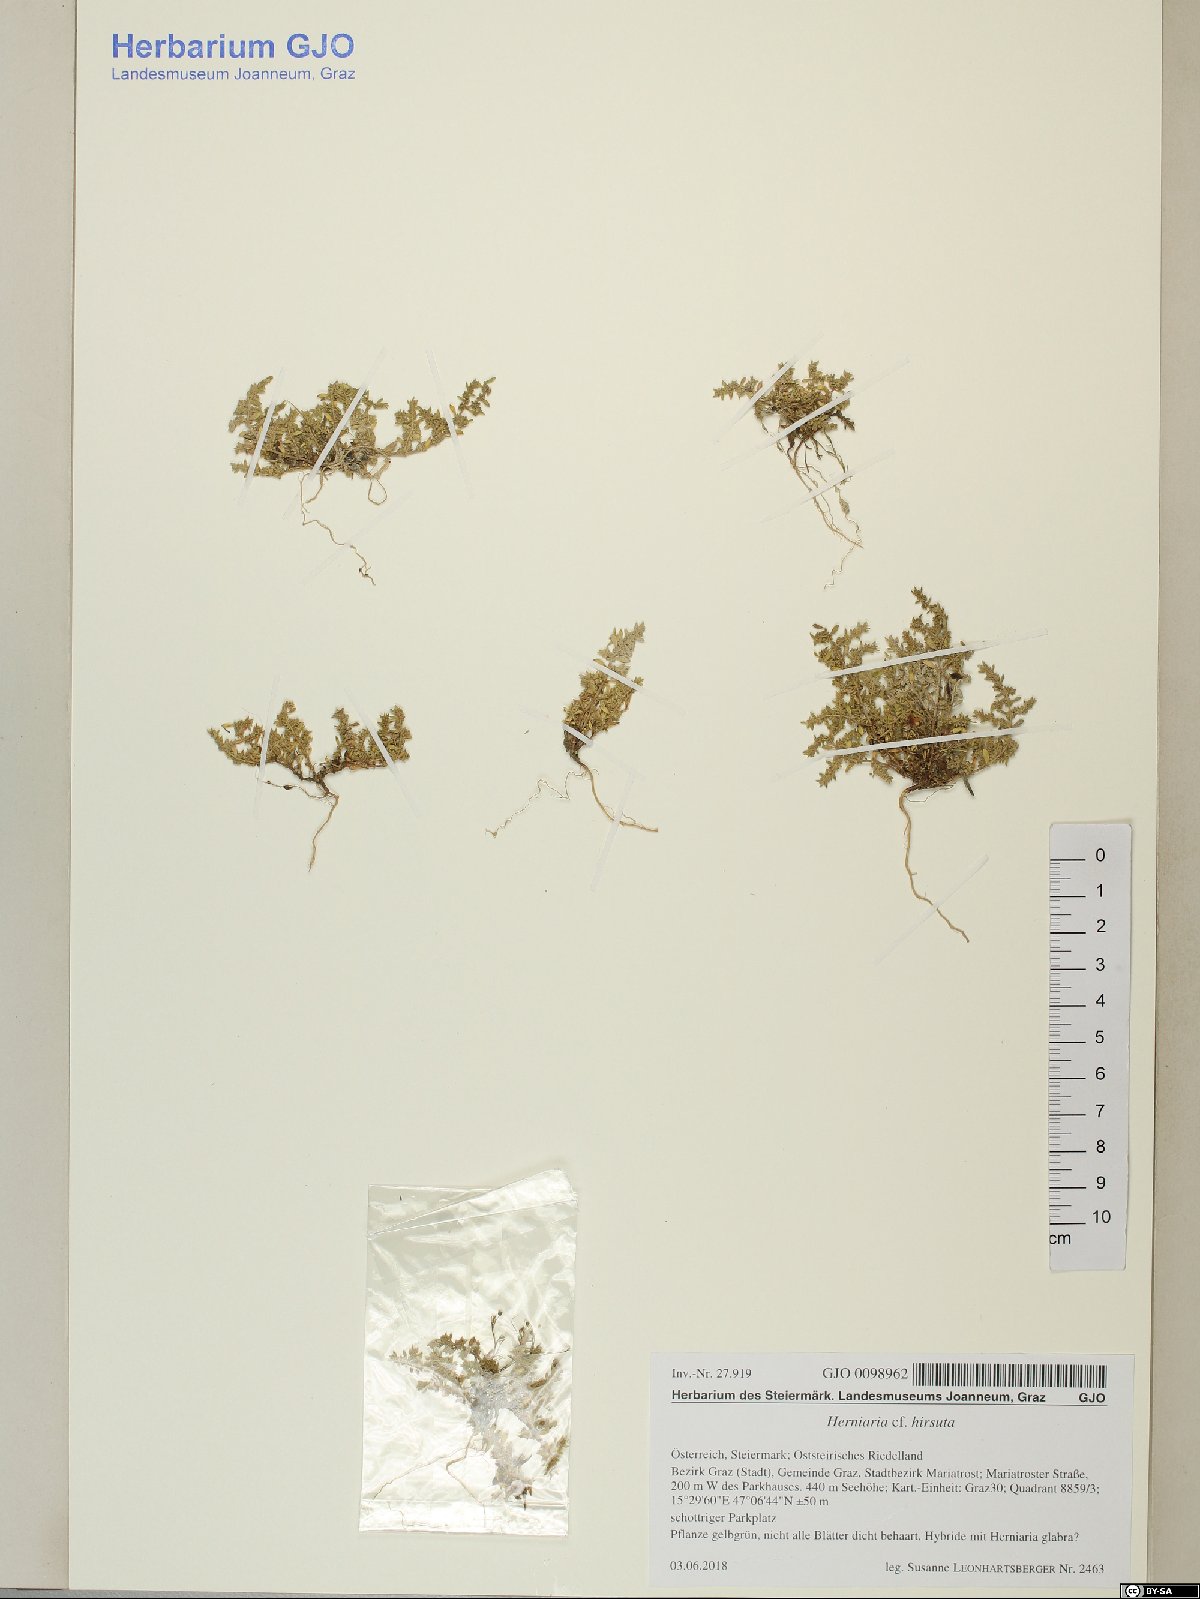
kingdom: Plantae
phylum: Tracheophyta
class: Magnoliopsida
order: Caryophyllales
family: Caryophyllaceae
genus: Herniaria
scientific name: Herniaria hirsuta
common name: Hairy rupturewort
